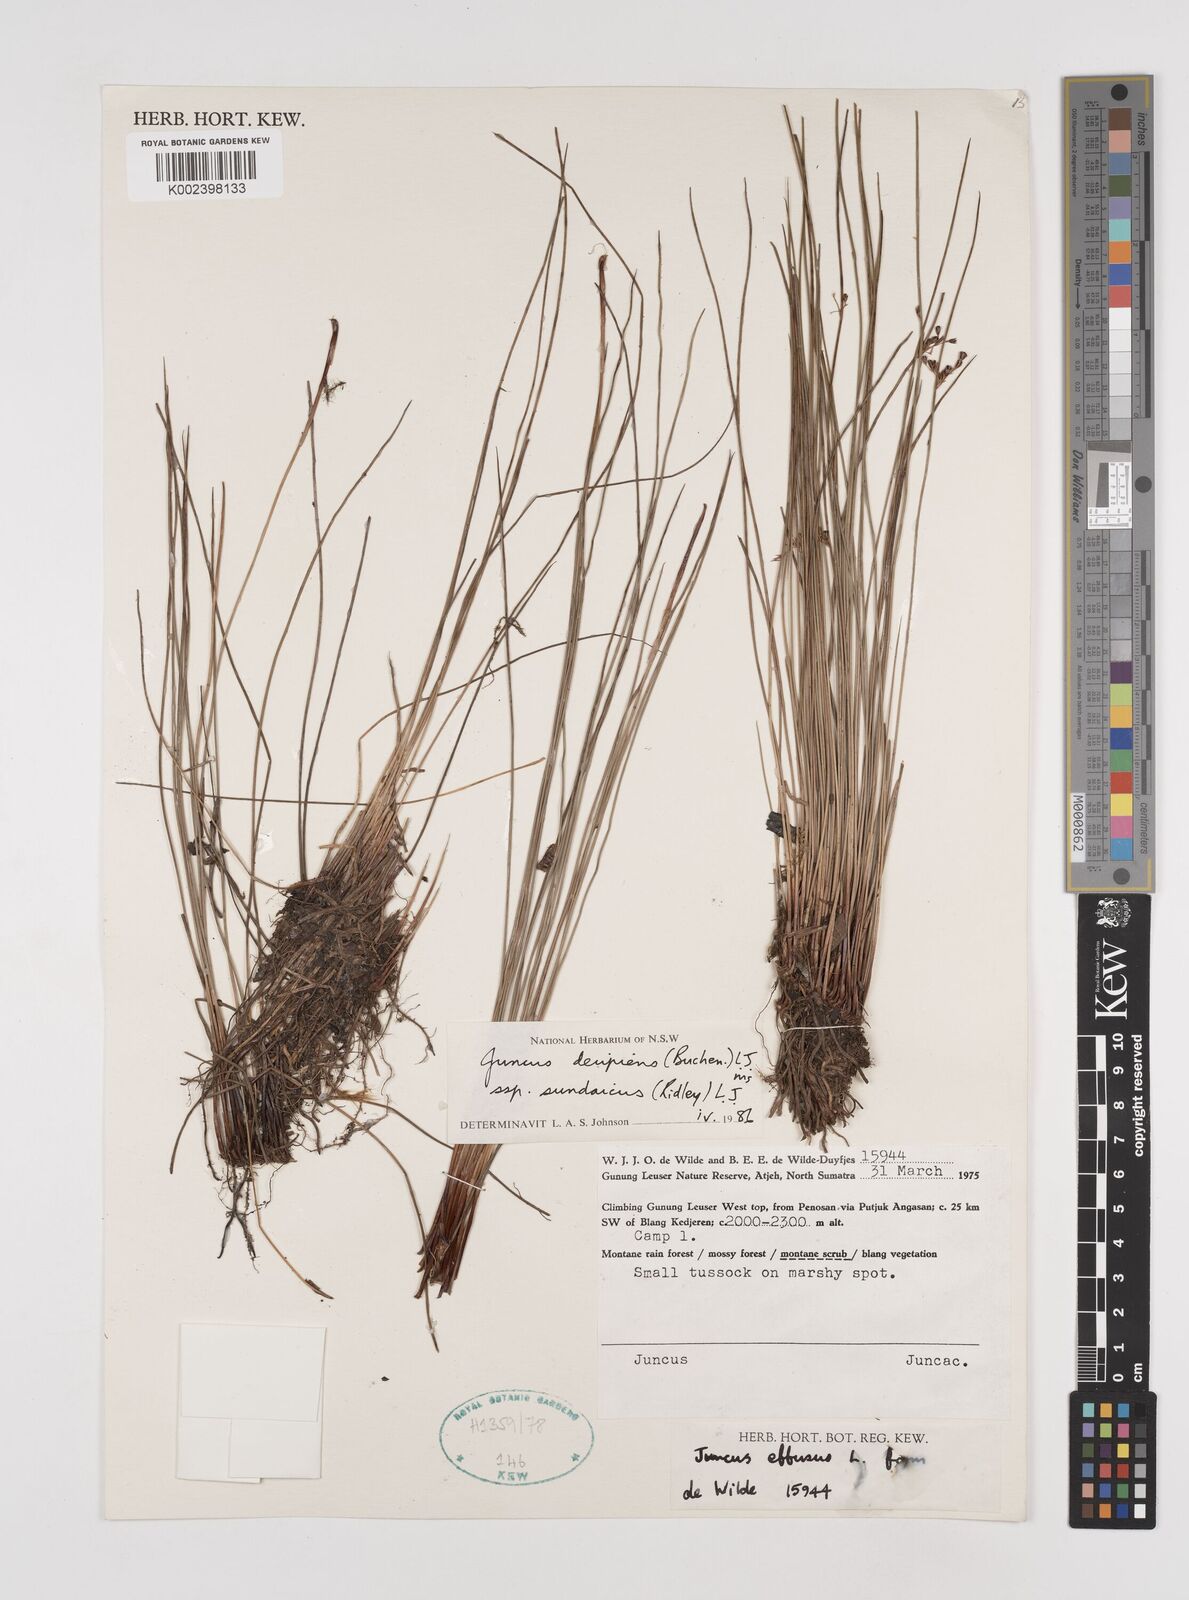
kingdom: Plantae
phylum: Tracheophyta
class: Liliopsida
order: Poales
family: Juncaceae
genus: Juncus
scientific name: Juncus decipiens
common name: Lamp rush
